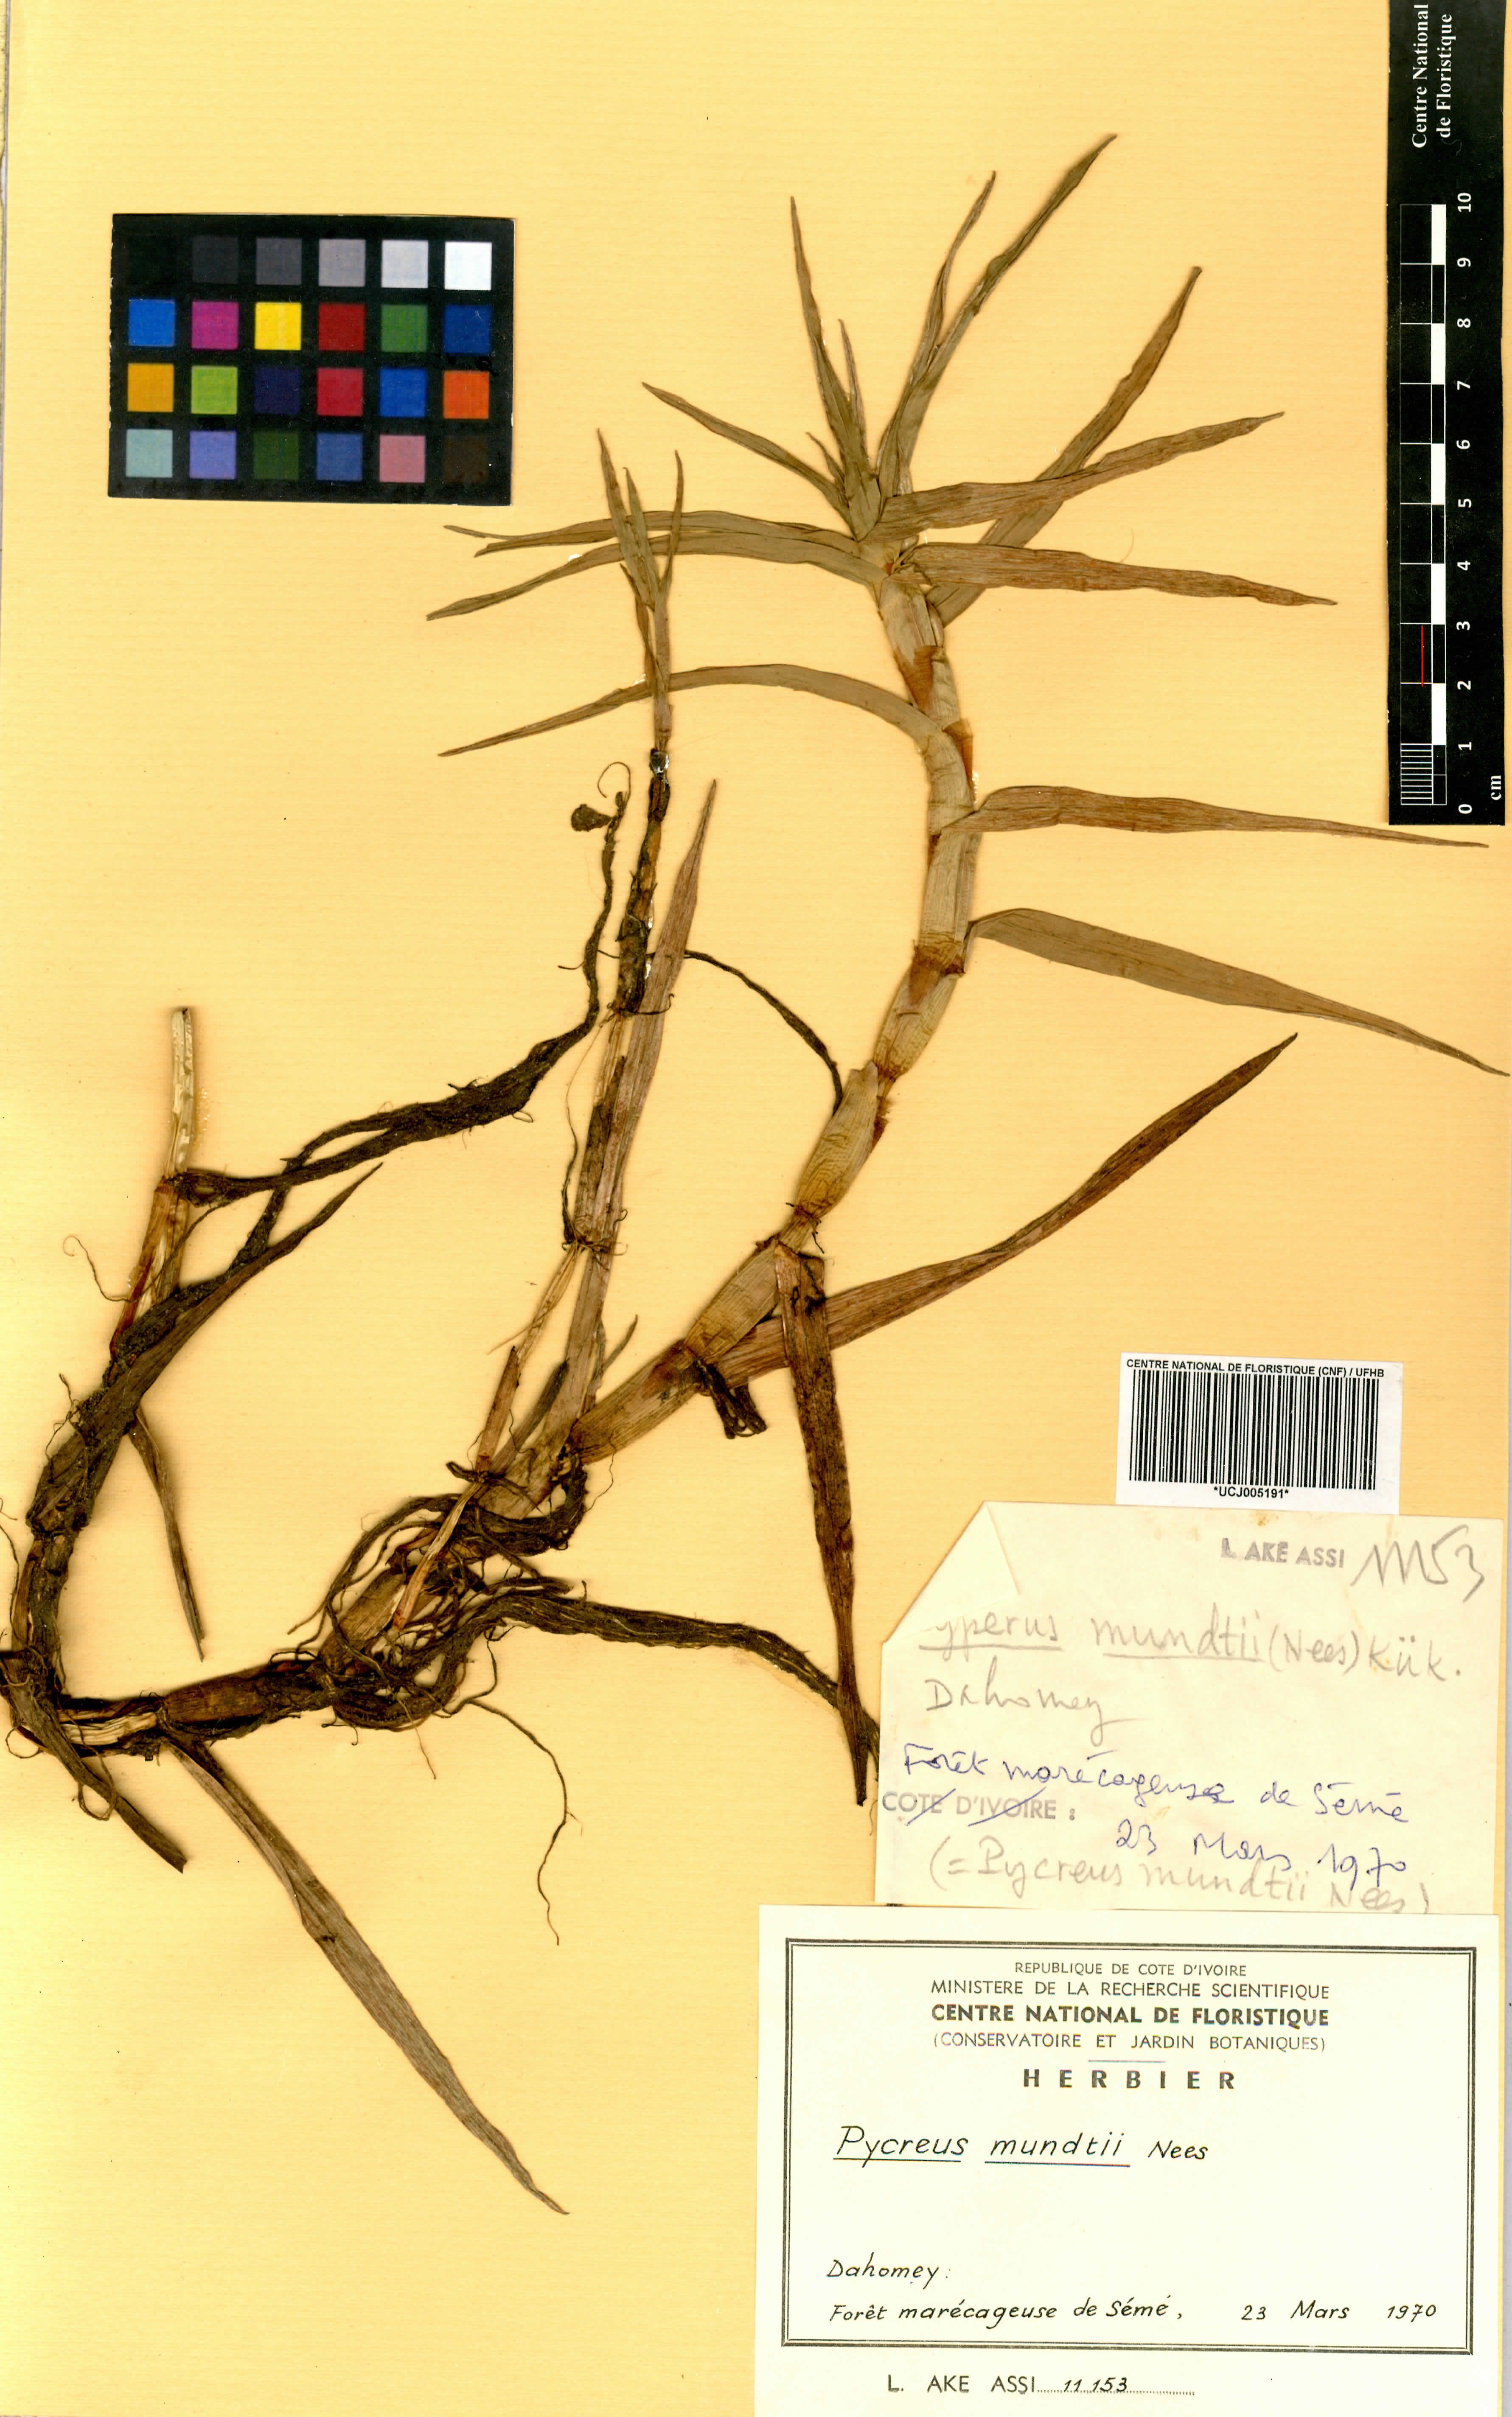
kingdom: Plantae
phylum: Tracheophyta
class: Liliopsida
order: Poales
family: Cyperaceae
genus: Cyperus
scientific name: Cyperus mundii
